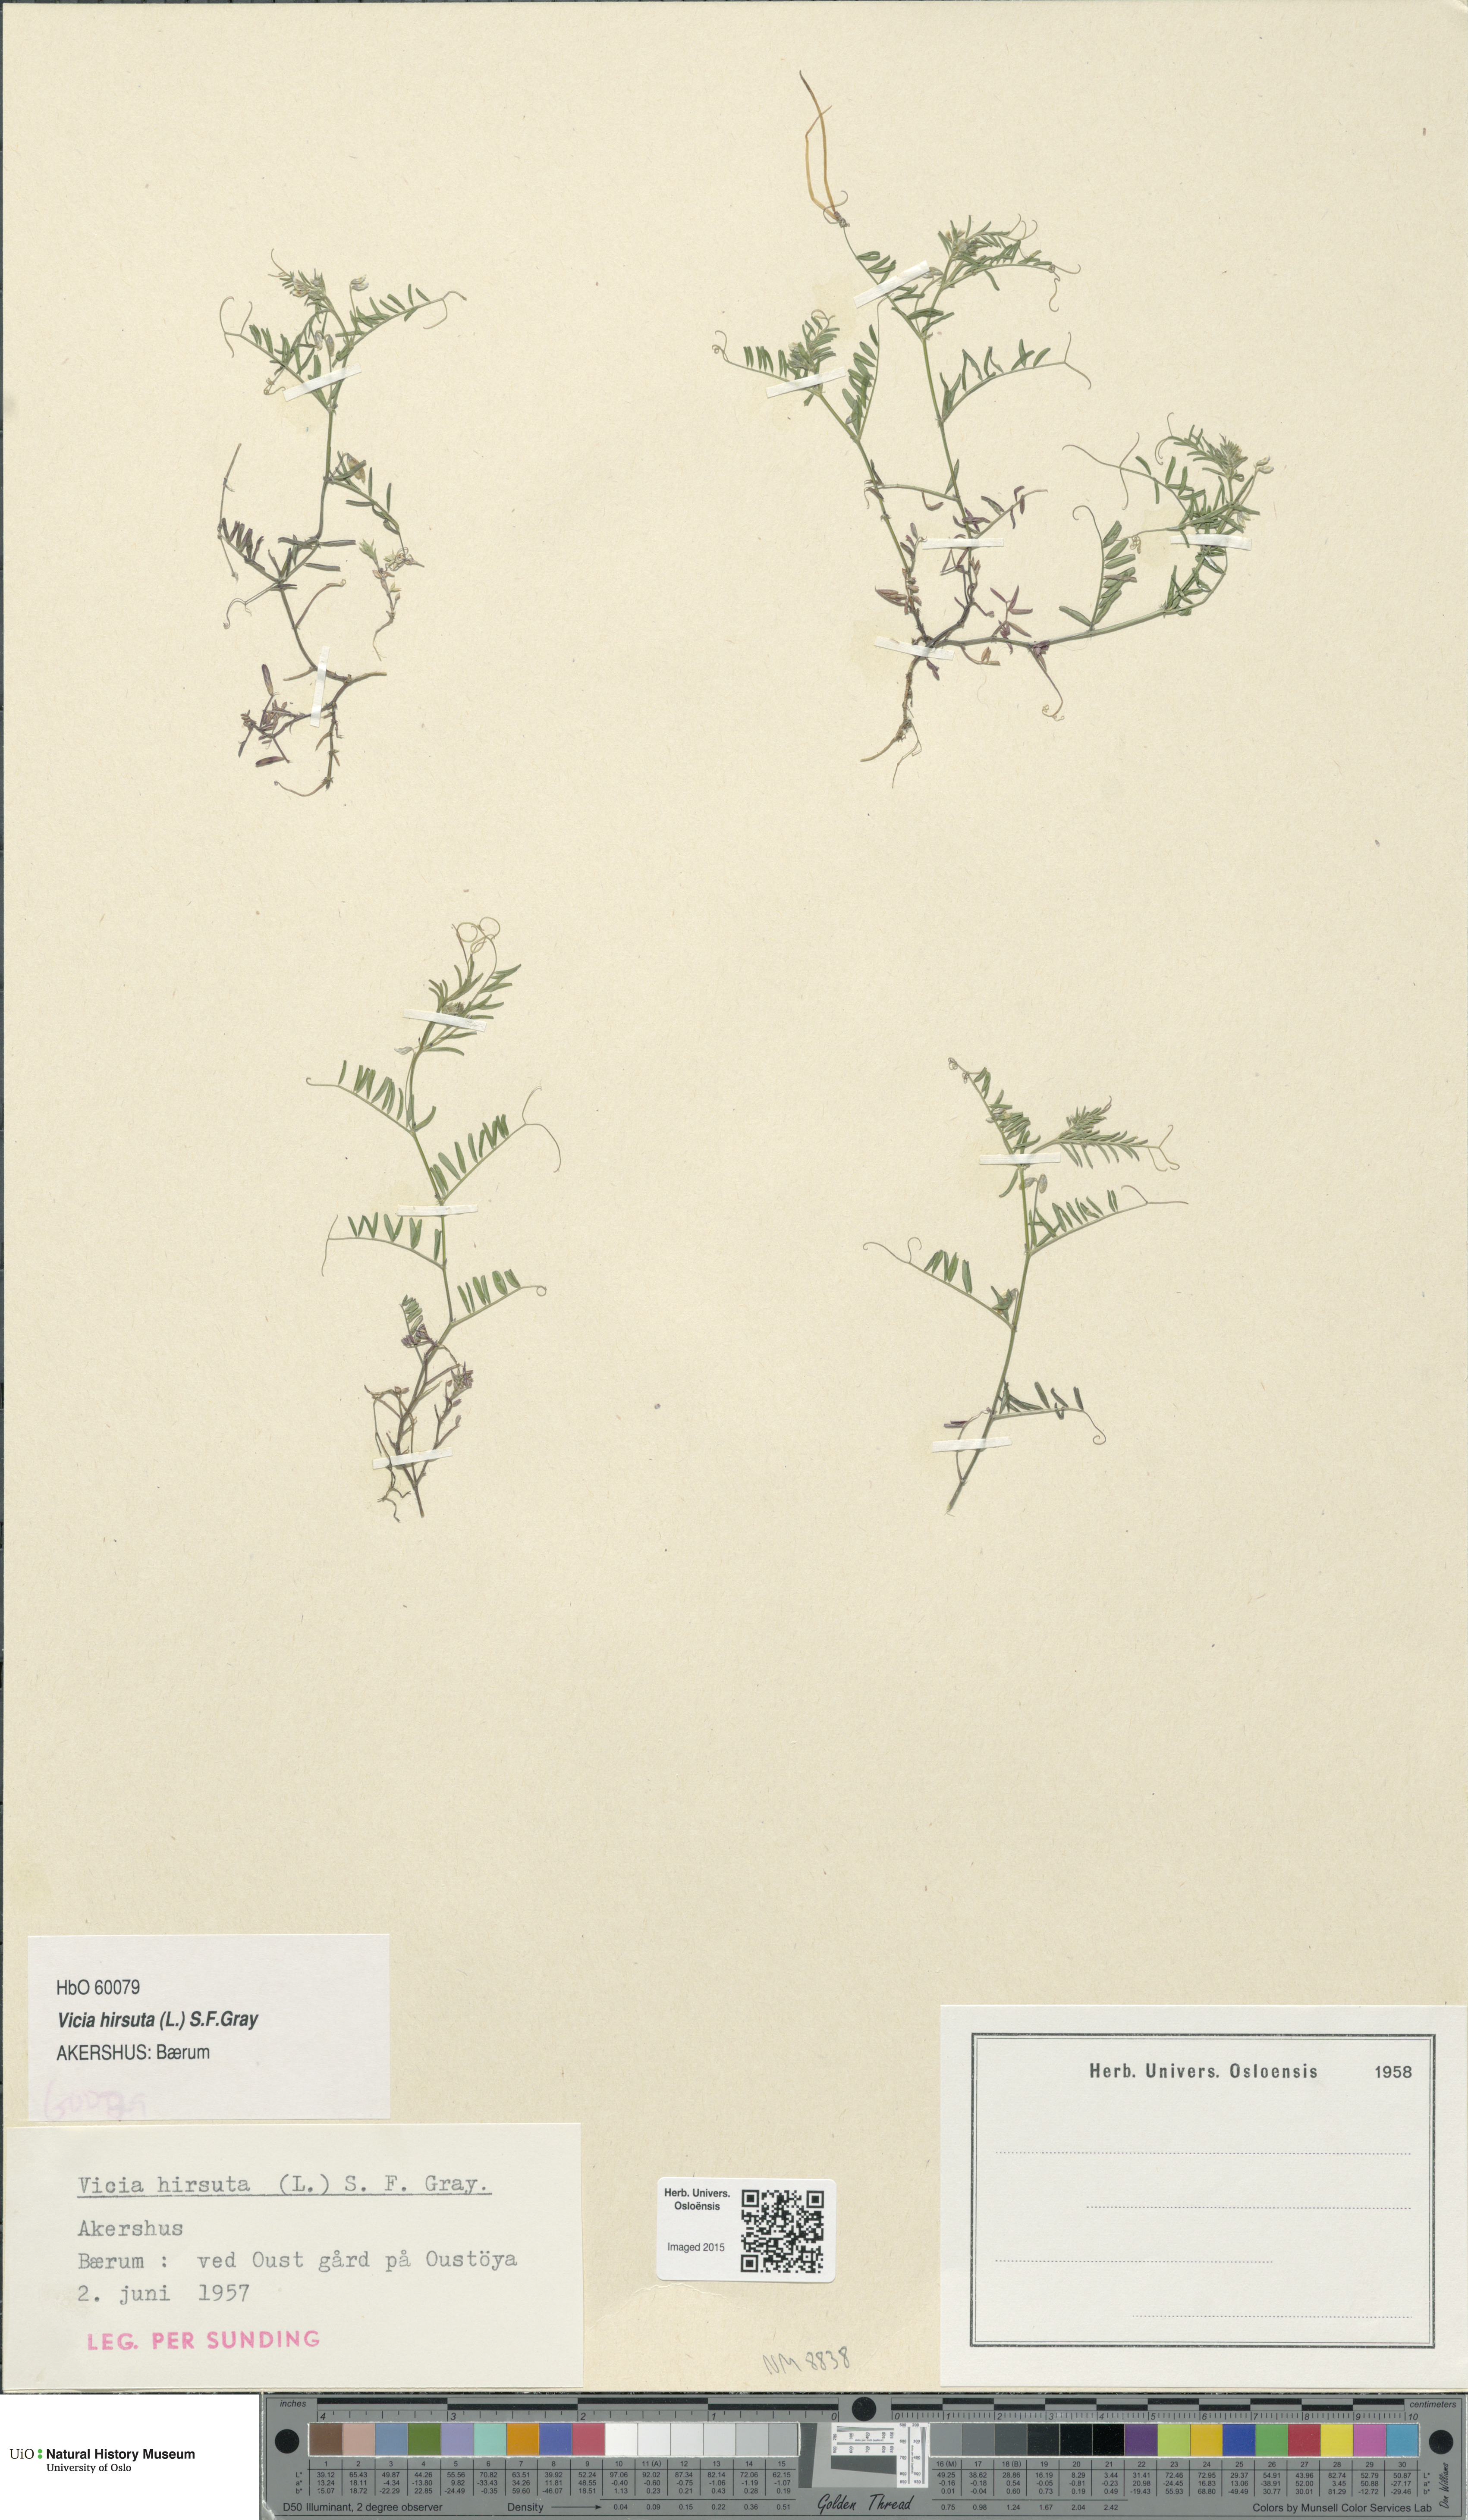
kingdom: Plantae
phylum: Tracheophyta
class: Magnoliopsida
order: Fabales
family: Fabaceae
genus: Vicia
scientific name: Vicia hirsuta
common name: Tiny vetch
